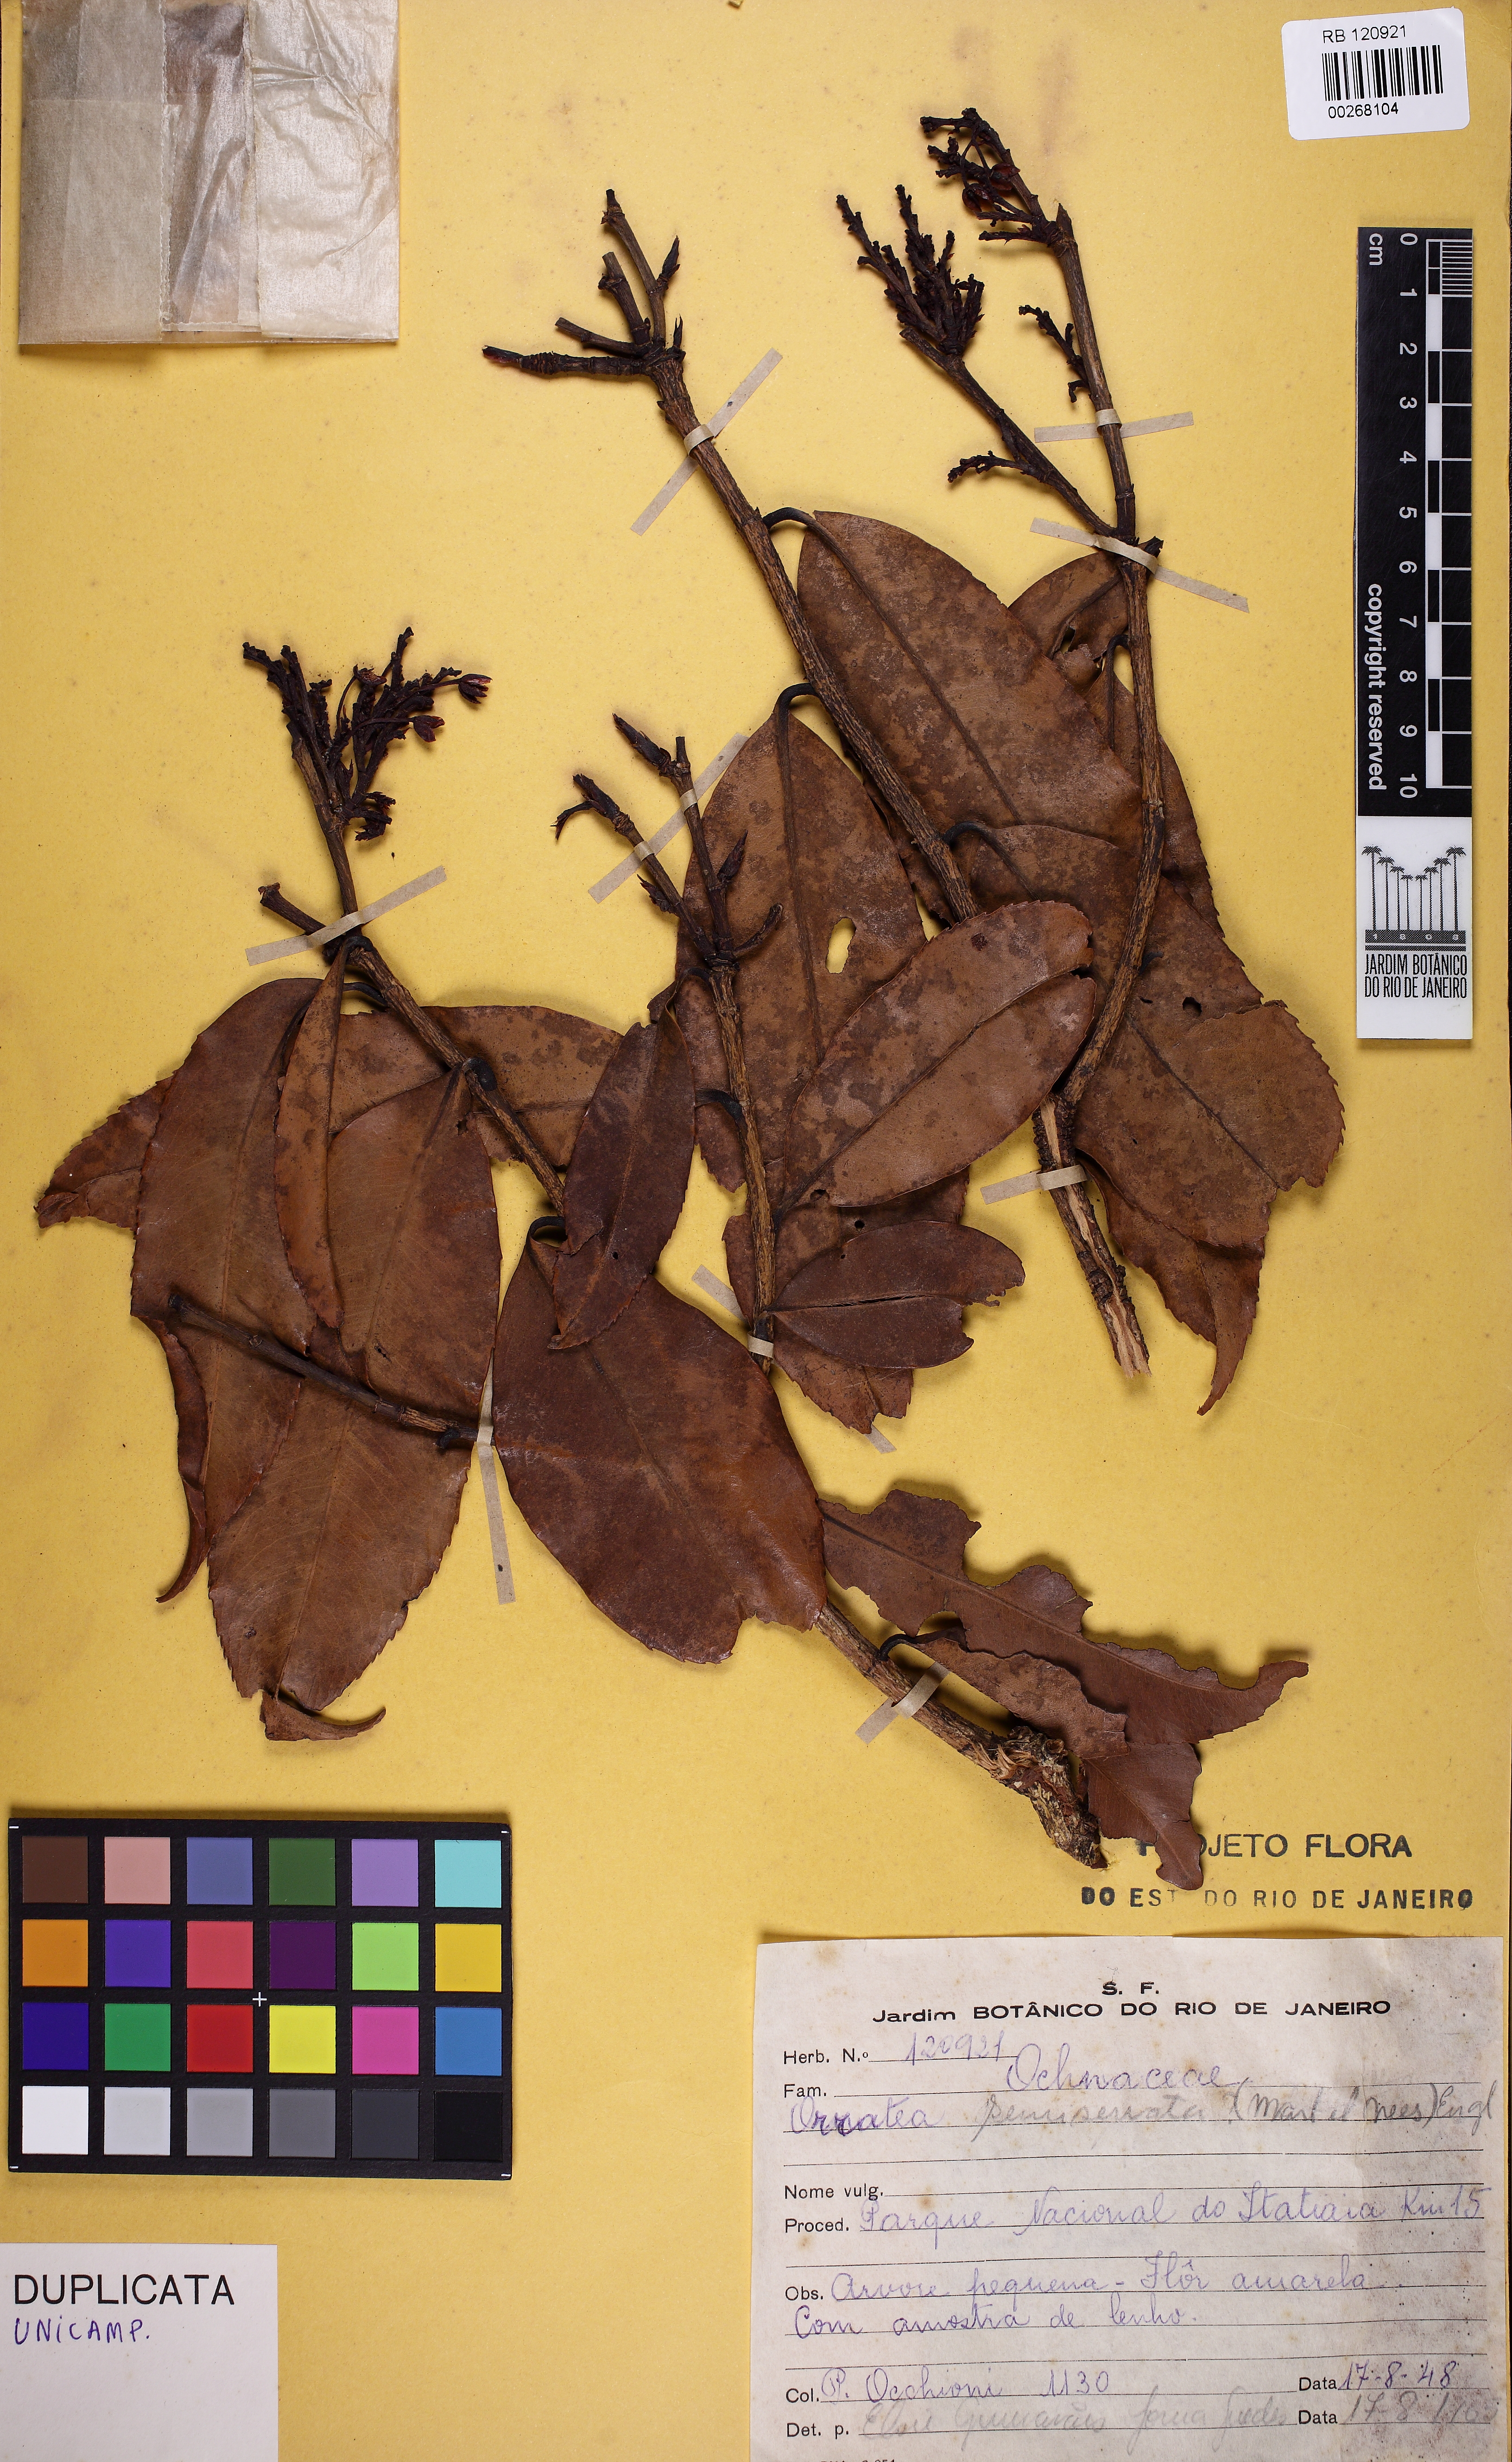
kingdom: Plantae
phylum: Tracheophyta
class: Magnoliopsida
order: Malpighiales
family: Ochnaceae
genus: Ouratea
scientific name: Ouratea semiserrata
